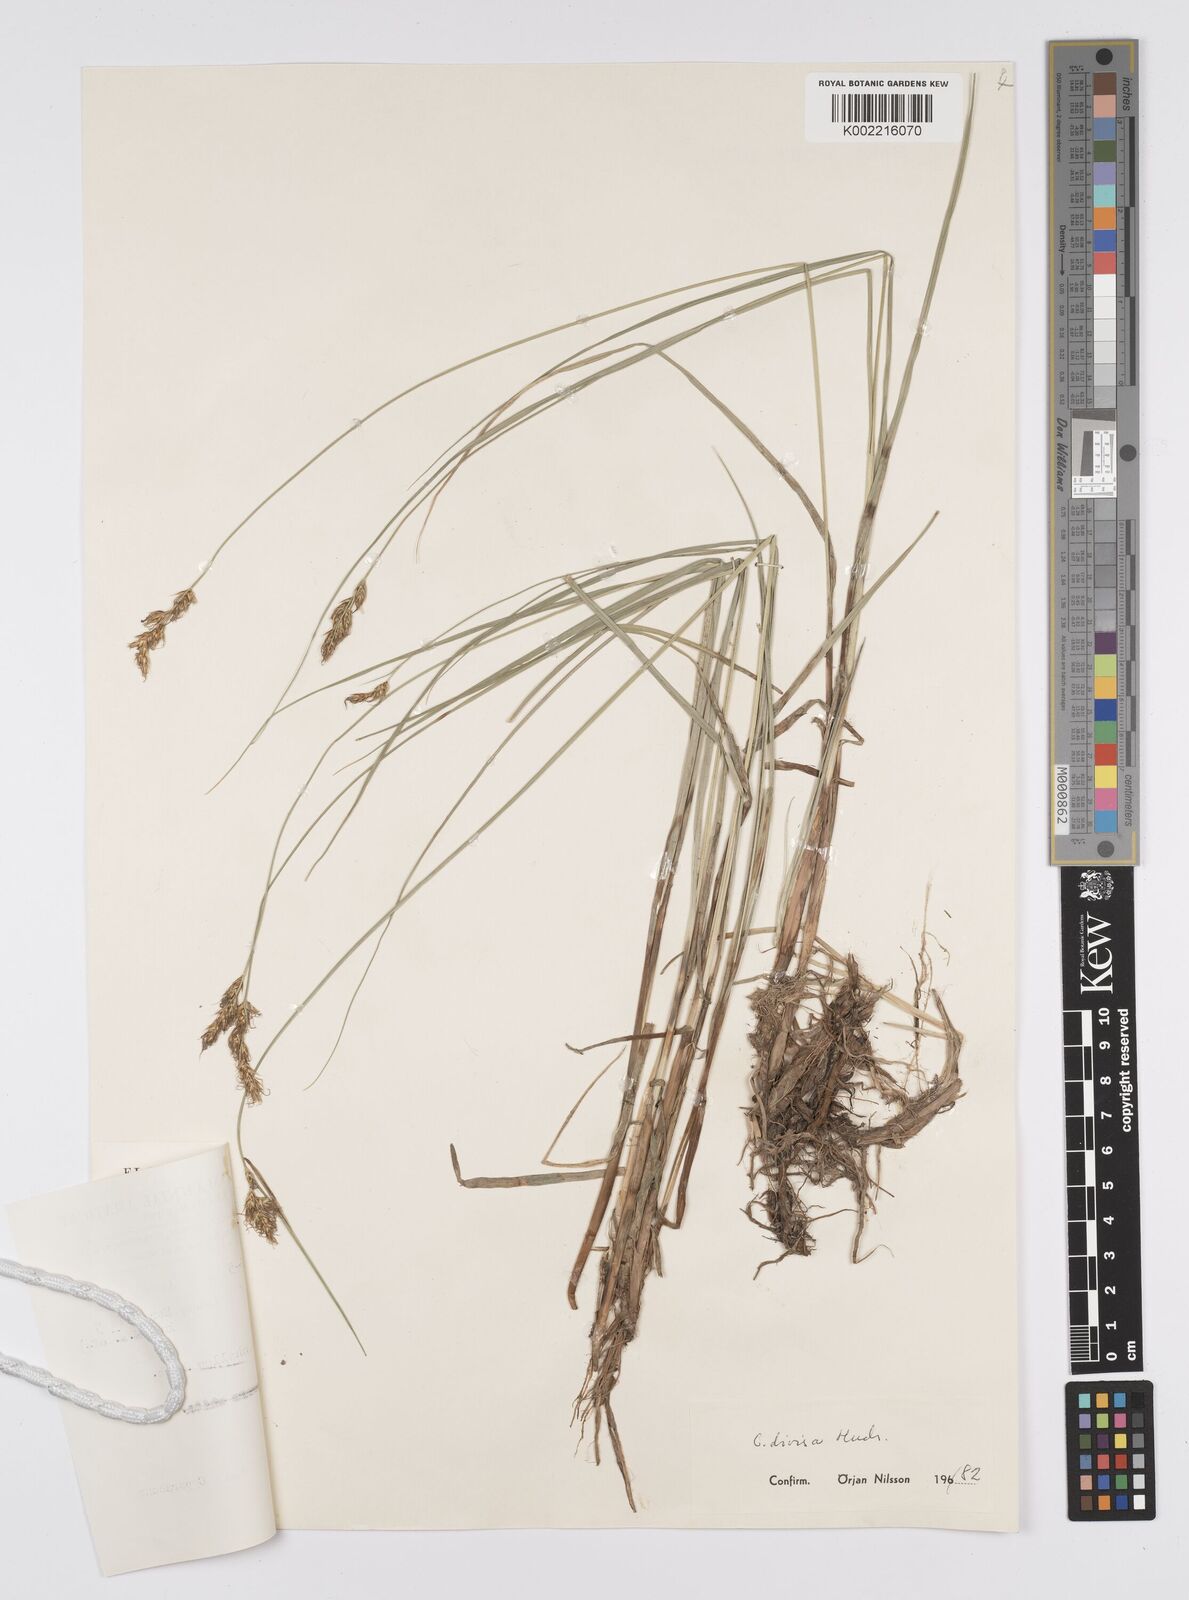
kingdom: Plantae
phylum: Tracheophyta
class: Liliopsida
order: Poales
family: Cyperaceae
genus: Carex
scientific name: Carex divisa
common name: Divided sedge
